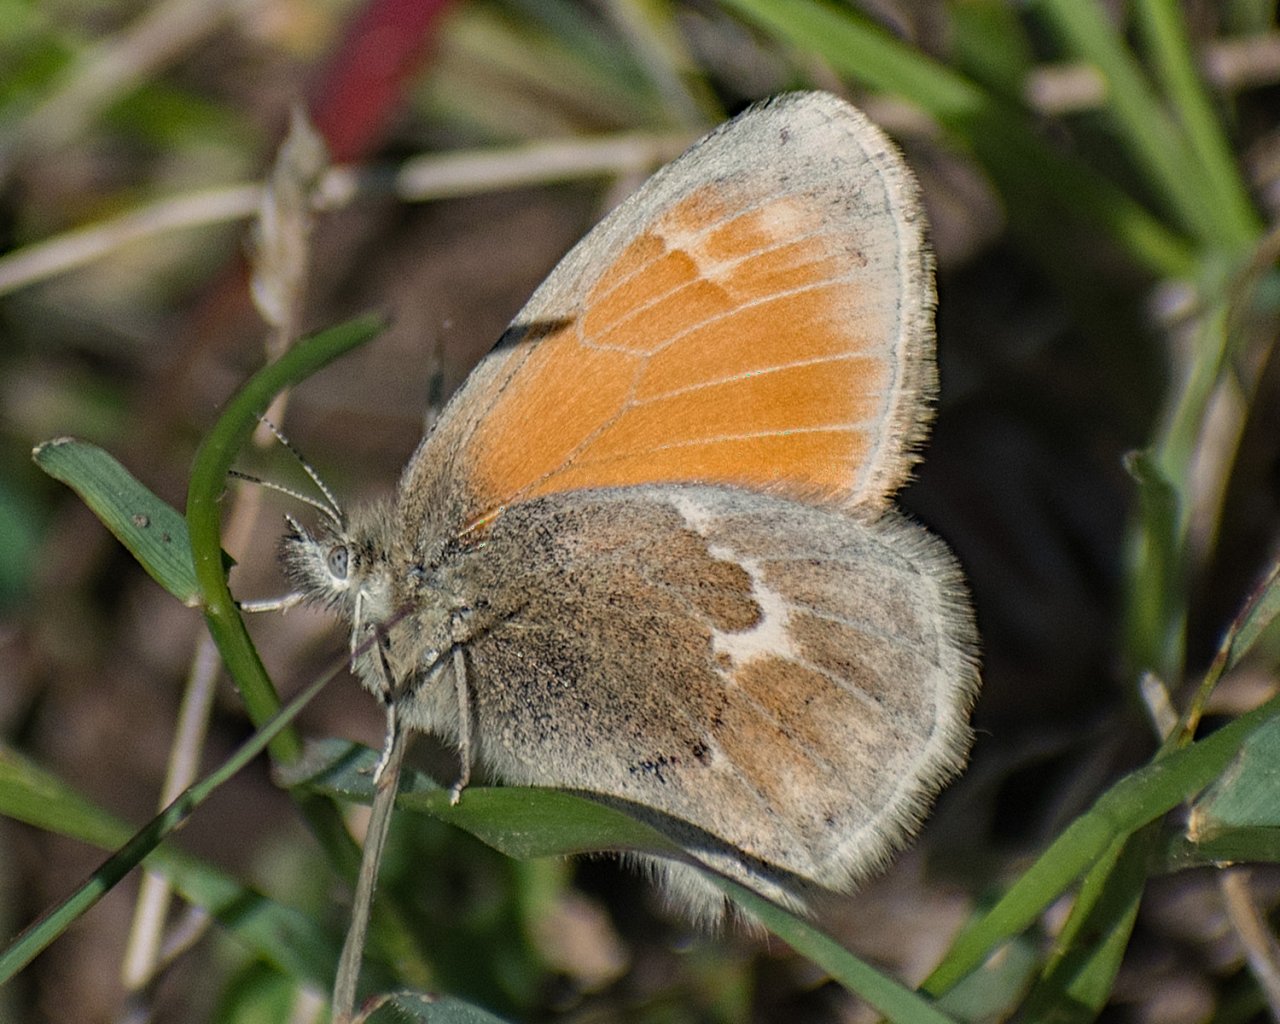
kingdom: Animalia
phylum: Arthropoda
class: Insecta
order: Lepidoptera
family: Nymphalidae
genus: Coenonympha
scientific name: Coenonympha tullia
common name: Large Heath
